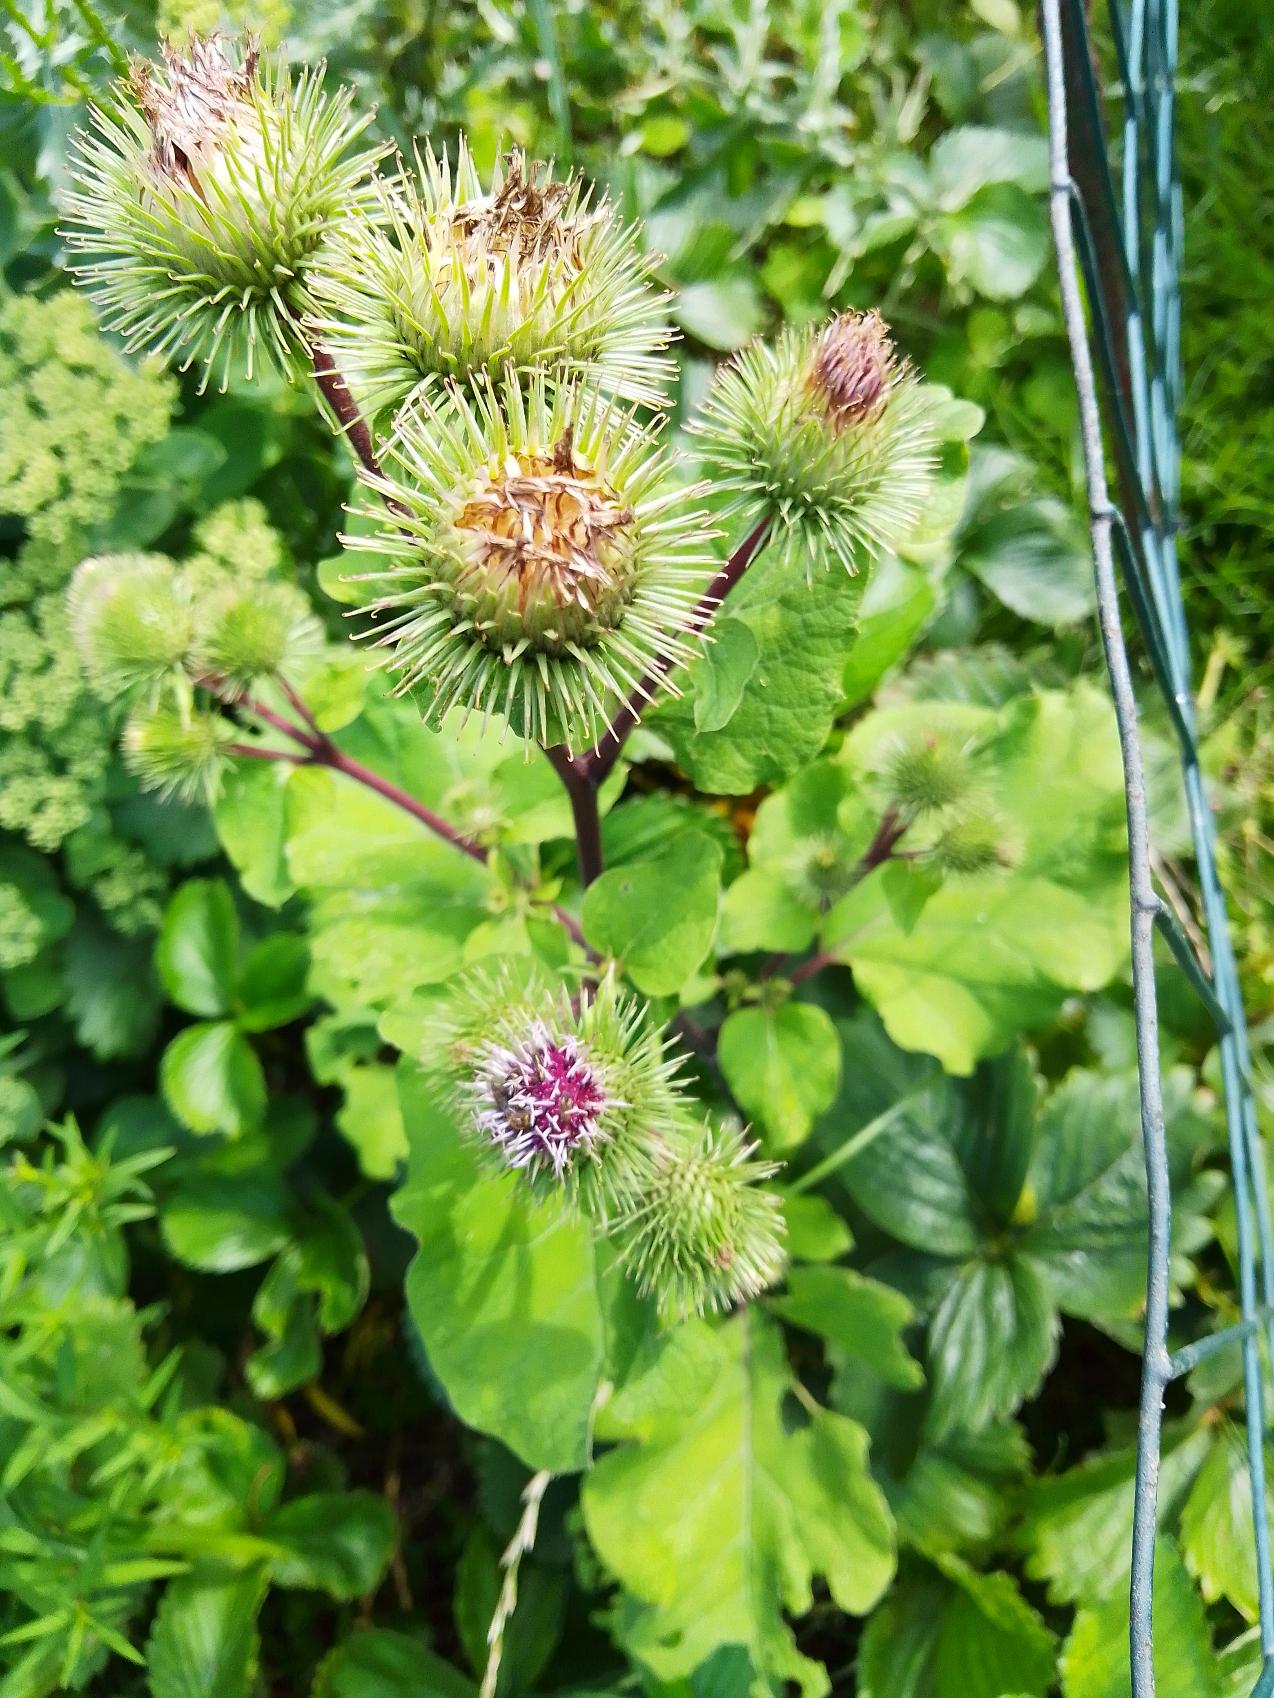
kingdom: Plantae
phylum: Tracheophyta
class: Magnoliopsida
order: Asterales
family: Asteraceae
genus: Arctium
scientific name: Arctium lappa
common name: Glat burre
